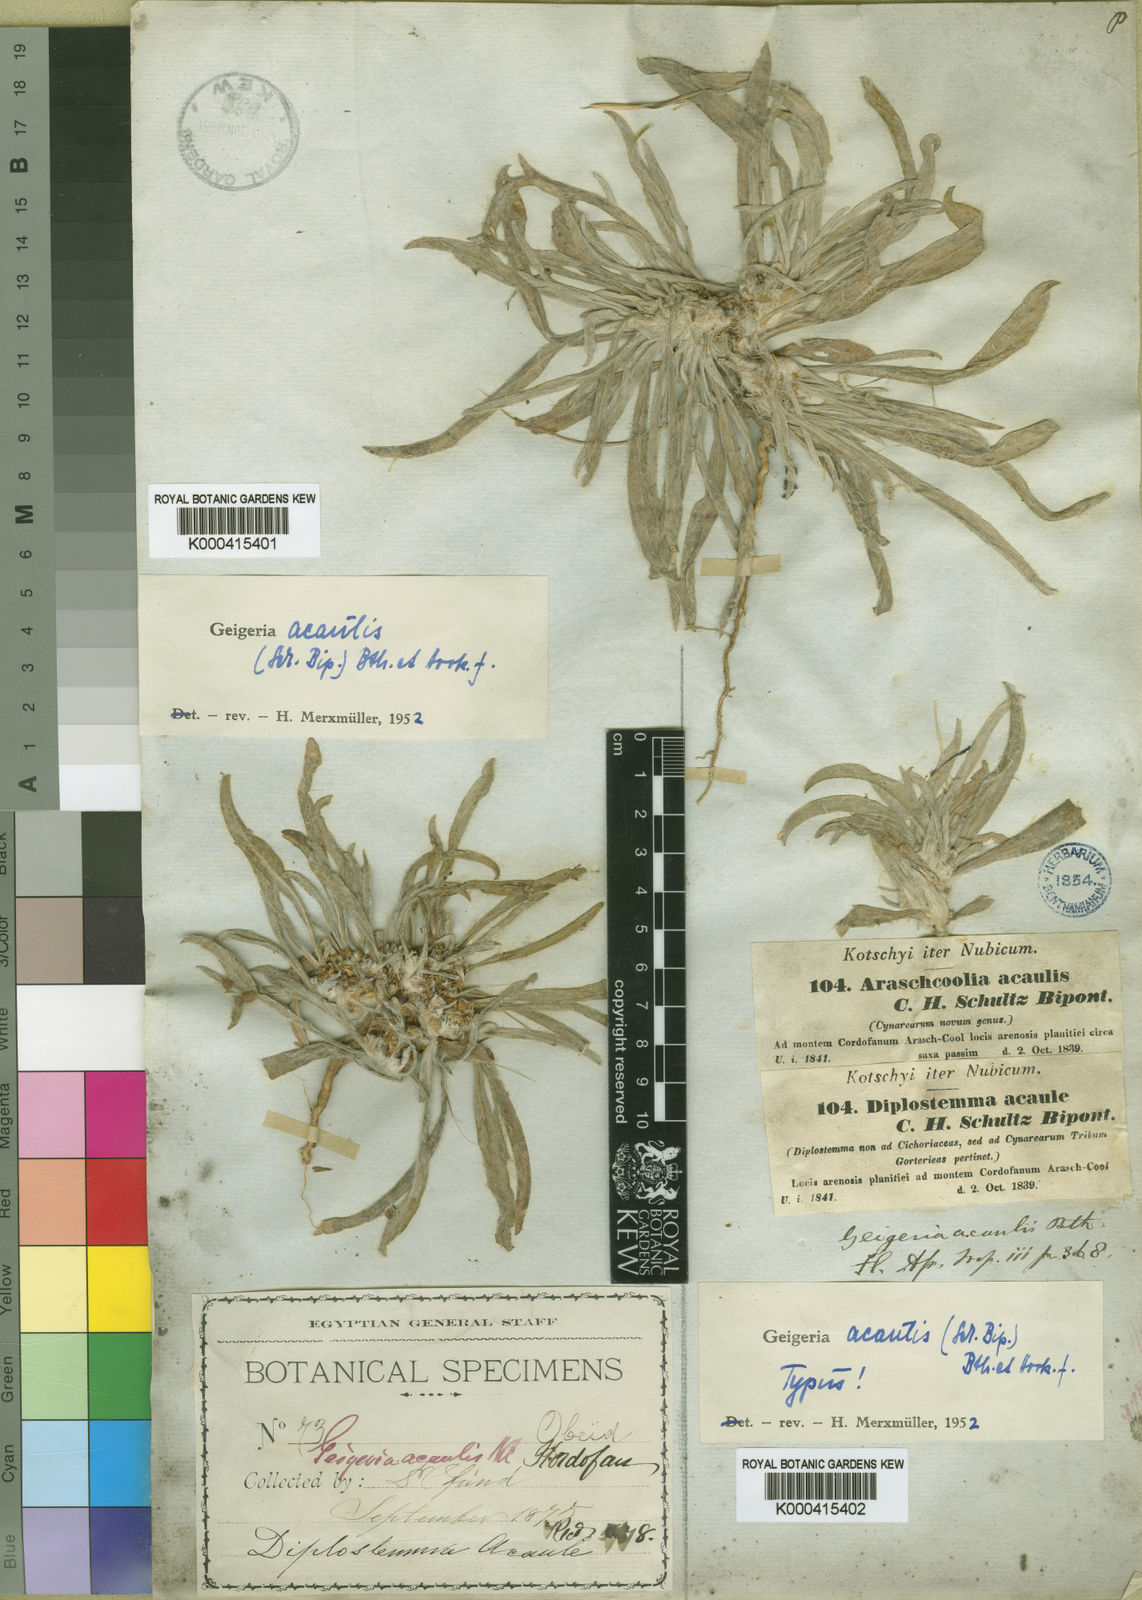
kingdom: Plantae
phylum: Tracheophyta
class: Magnoliopsida
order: Asterales
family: Asteraceae
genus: Geigeria
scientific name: Geigeria
